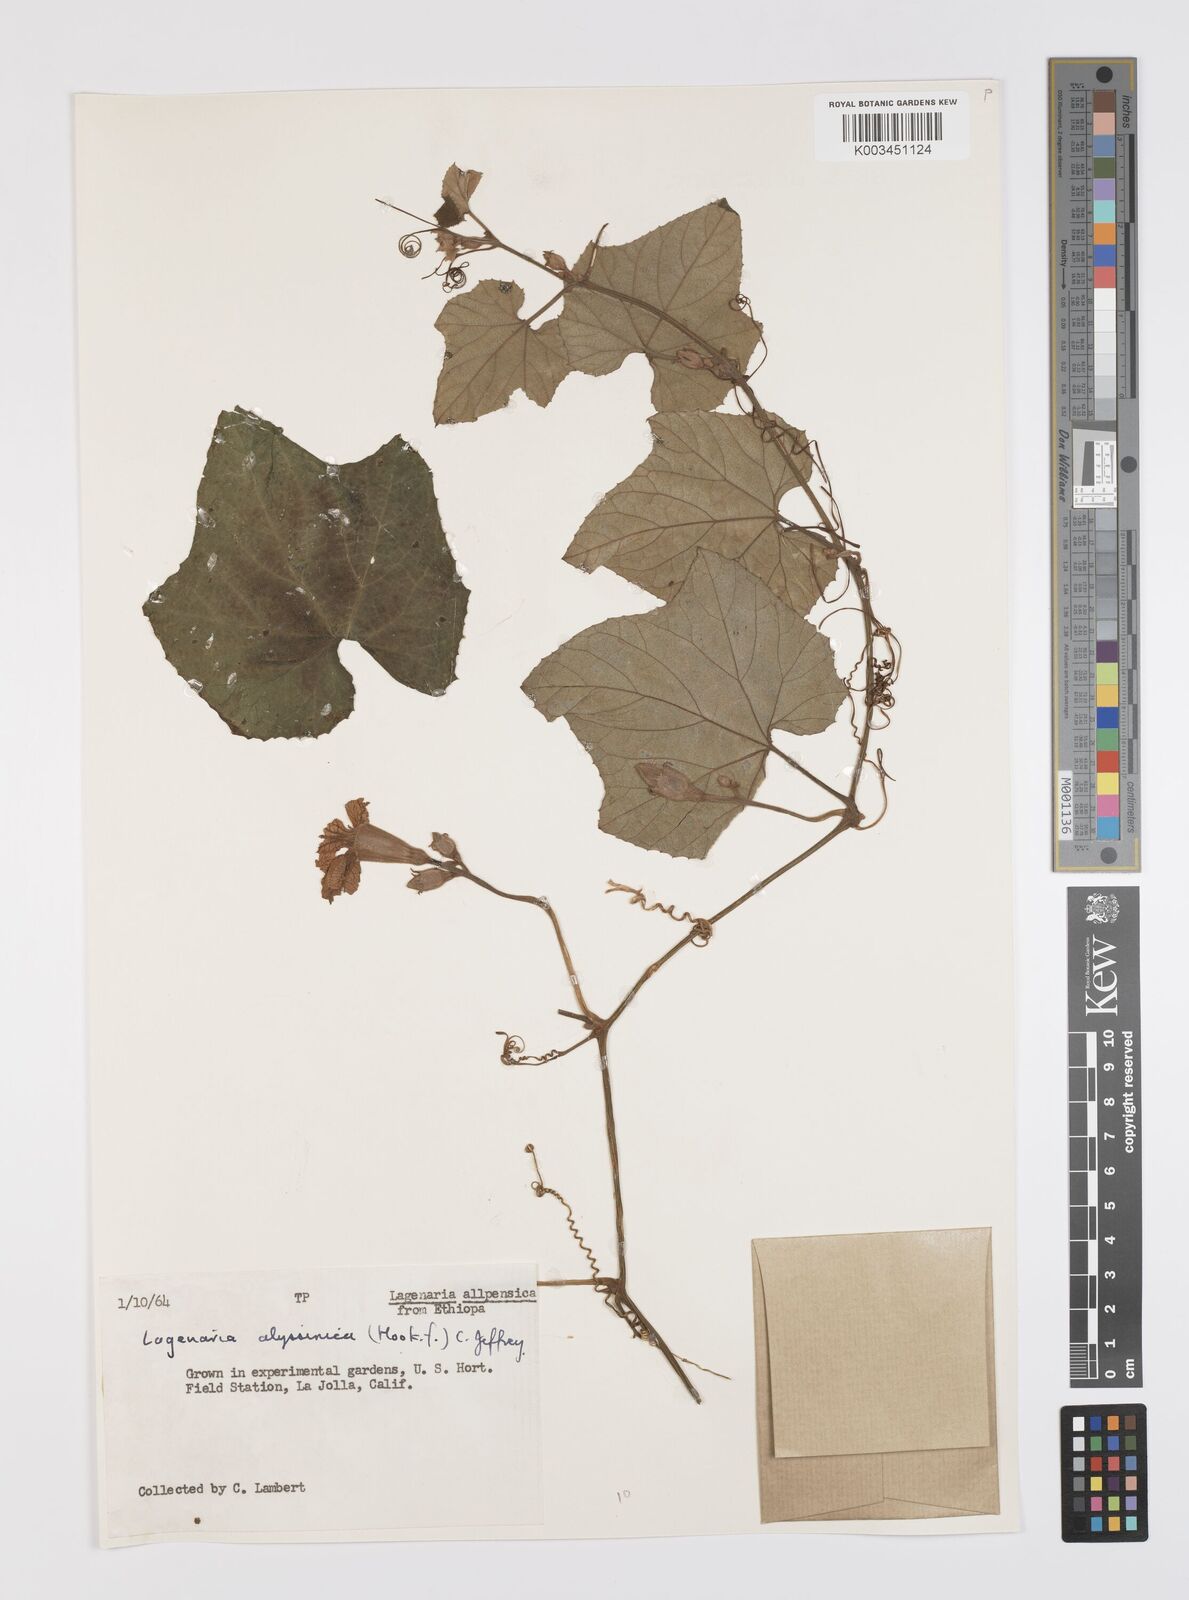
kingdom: Plantae
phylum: Tracheophyta
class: Magnoliopsida
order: Cucurbitales
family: Cucurbitaceae
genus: Lagenaria
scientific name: Lagenaria abyssinica
